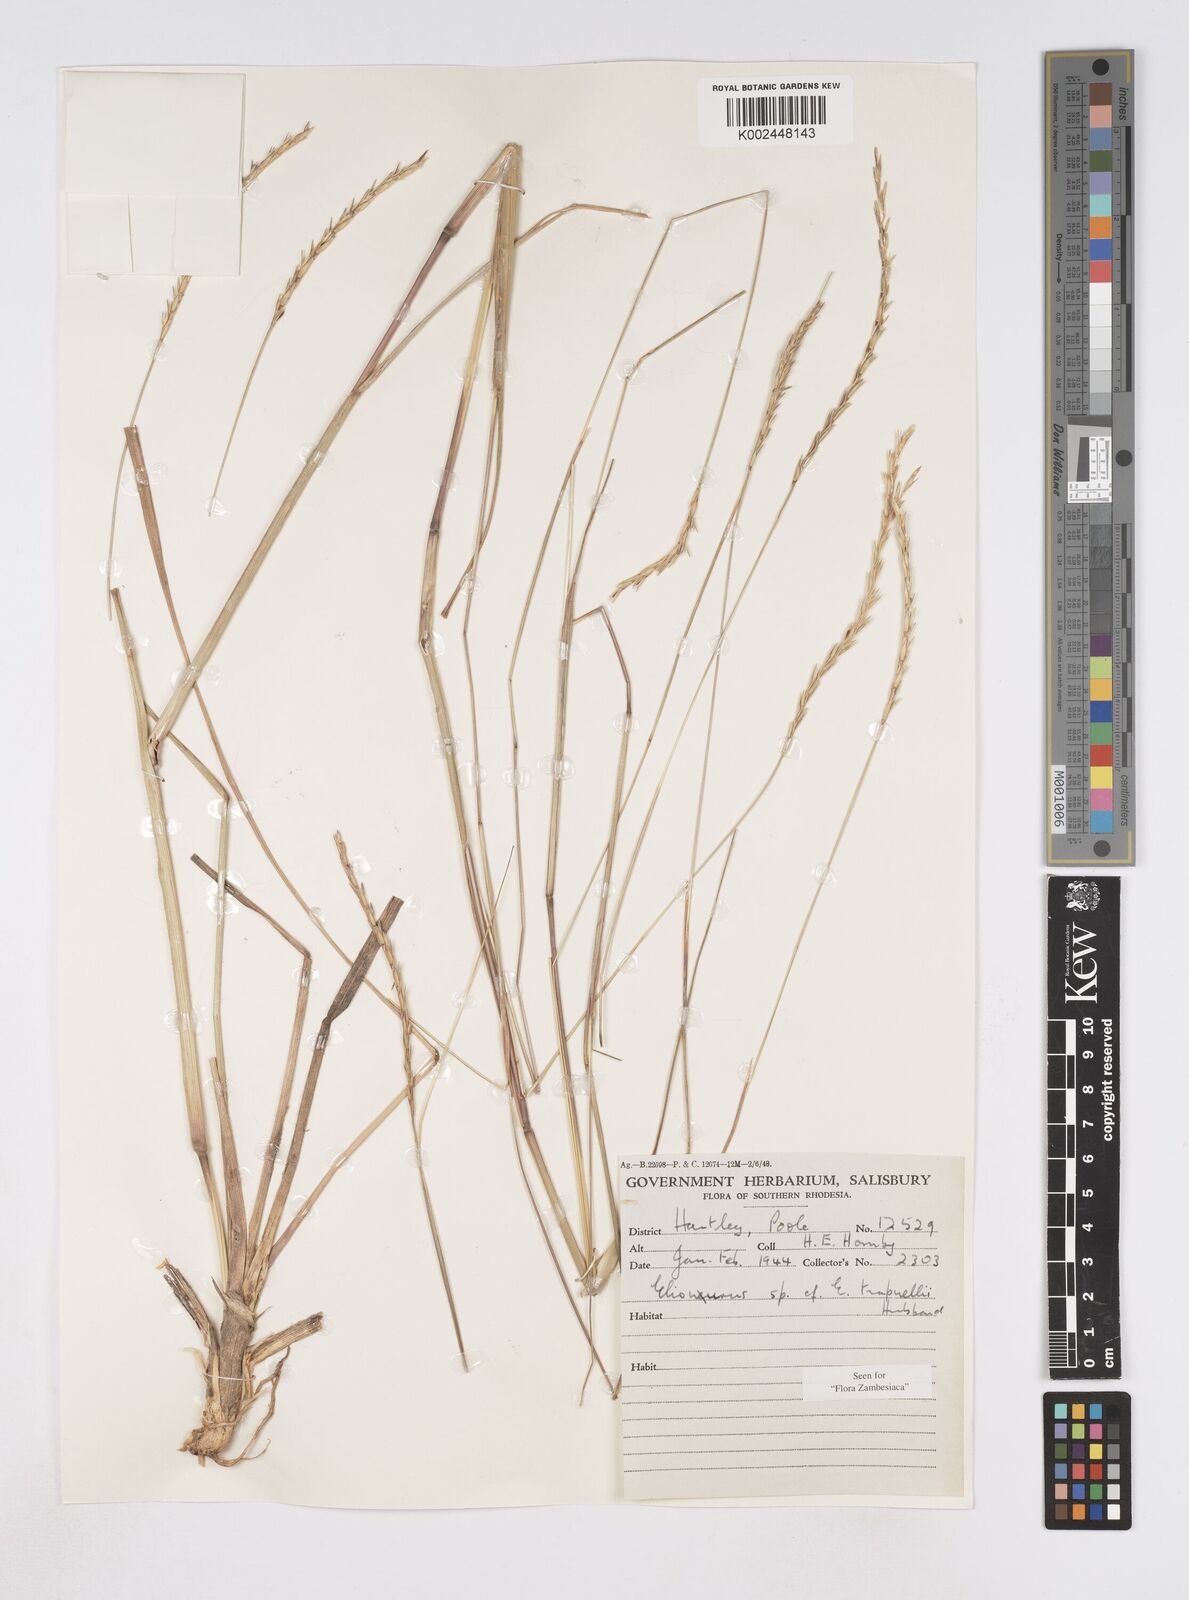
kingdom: Plantae
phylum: Tracheophyta
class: Liliopsida
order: Poales
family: Poaceae
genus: Elionurus
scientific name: Elionurus tripsacoides
